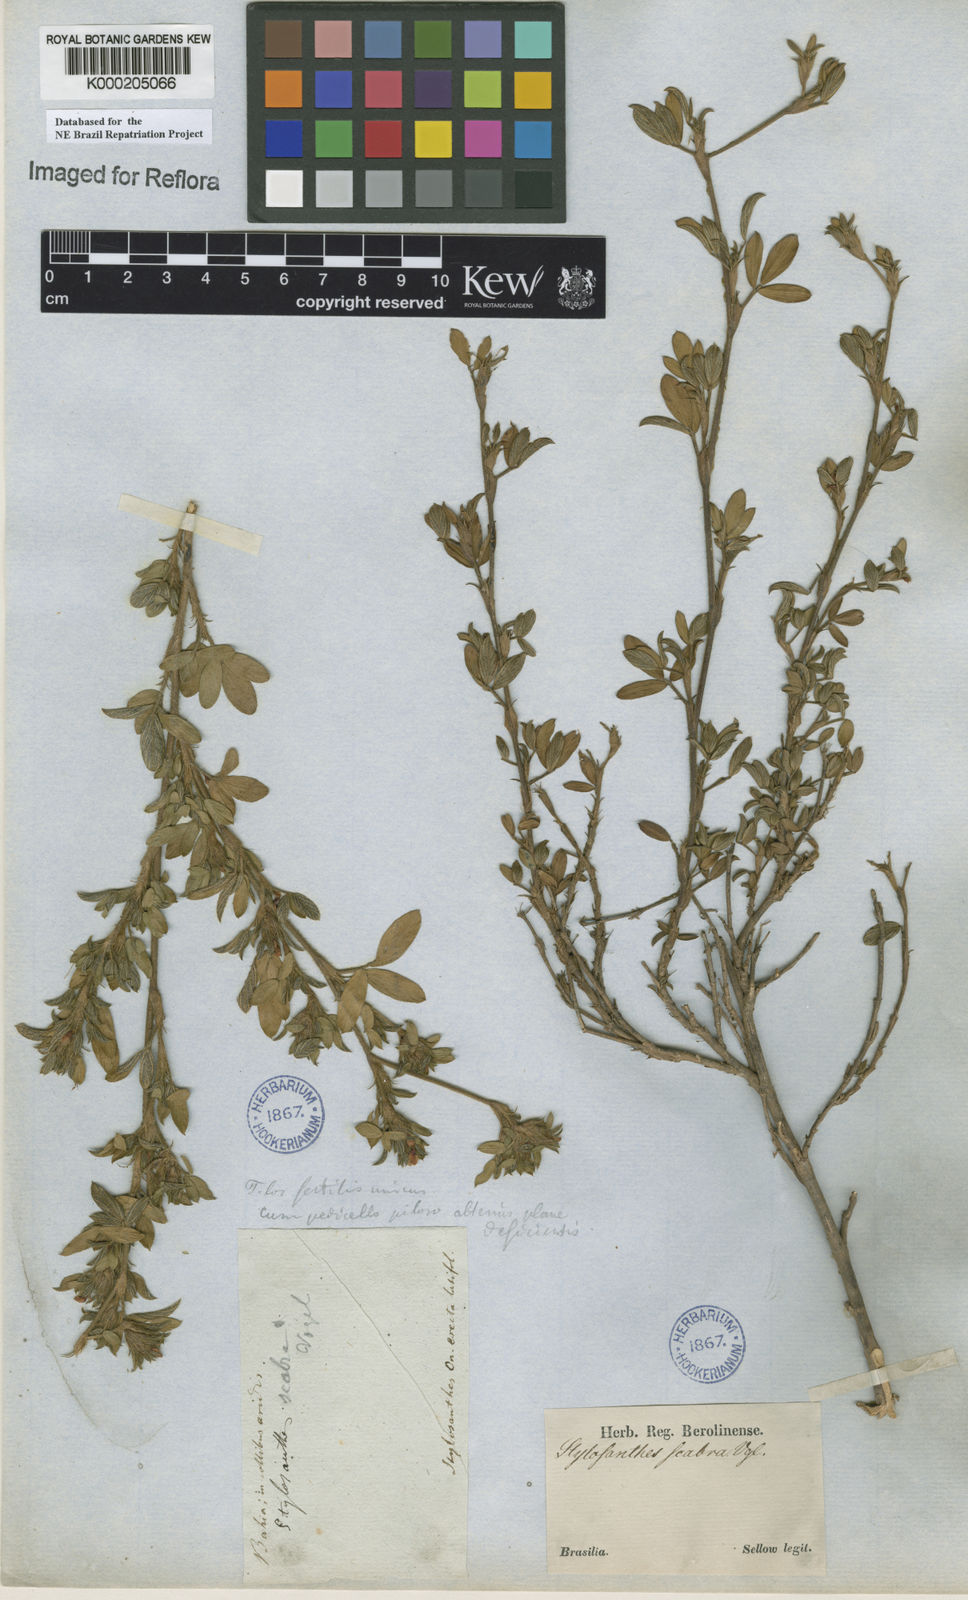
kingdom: Plantae
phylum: Tracheophyta
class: Magnoliopsida
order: Fabales
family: Fabaceae
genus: Stylosanthes
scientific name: Stylosanthes scabra
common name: Pencilflower
